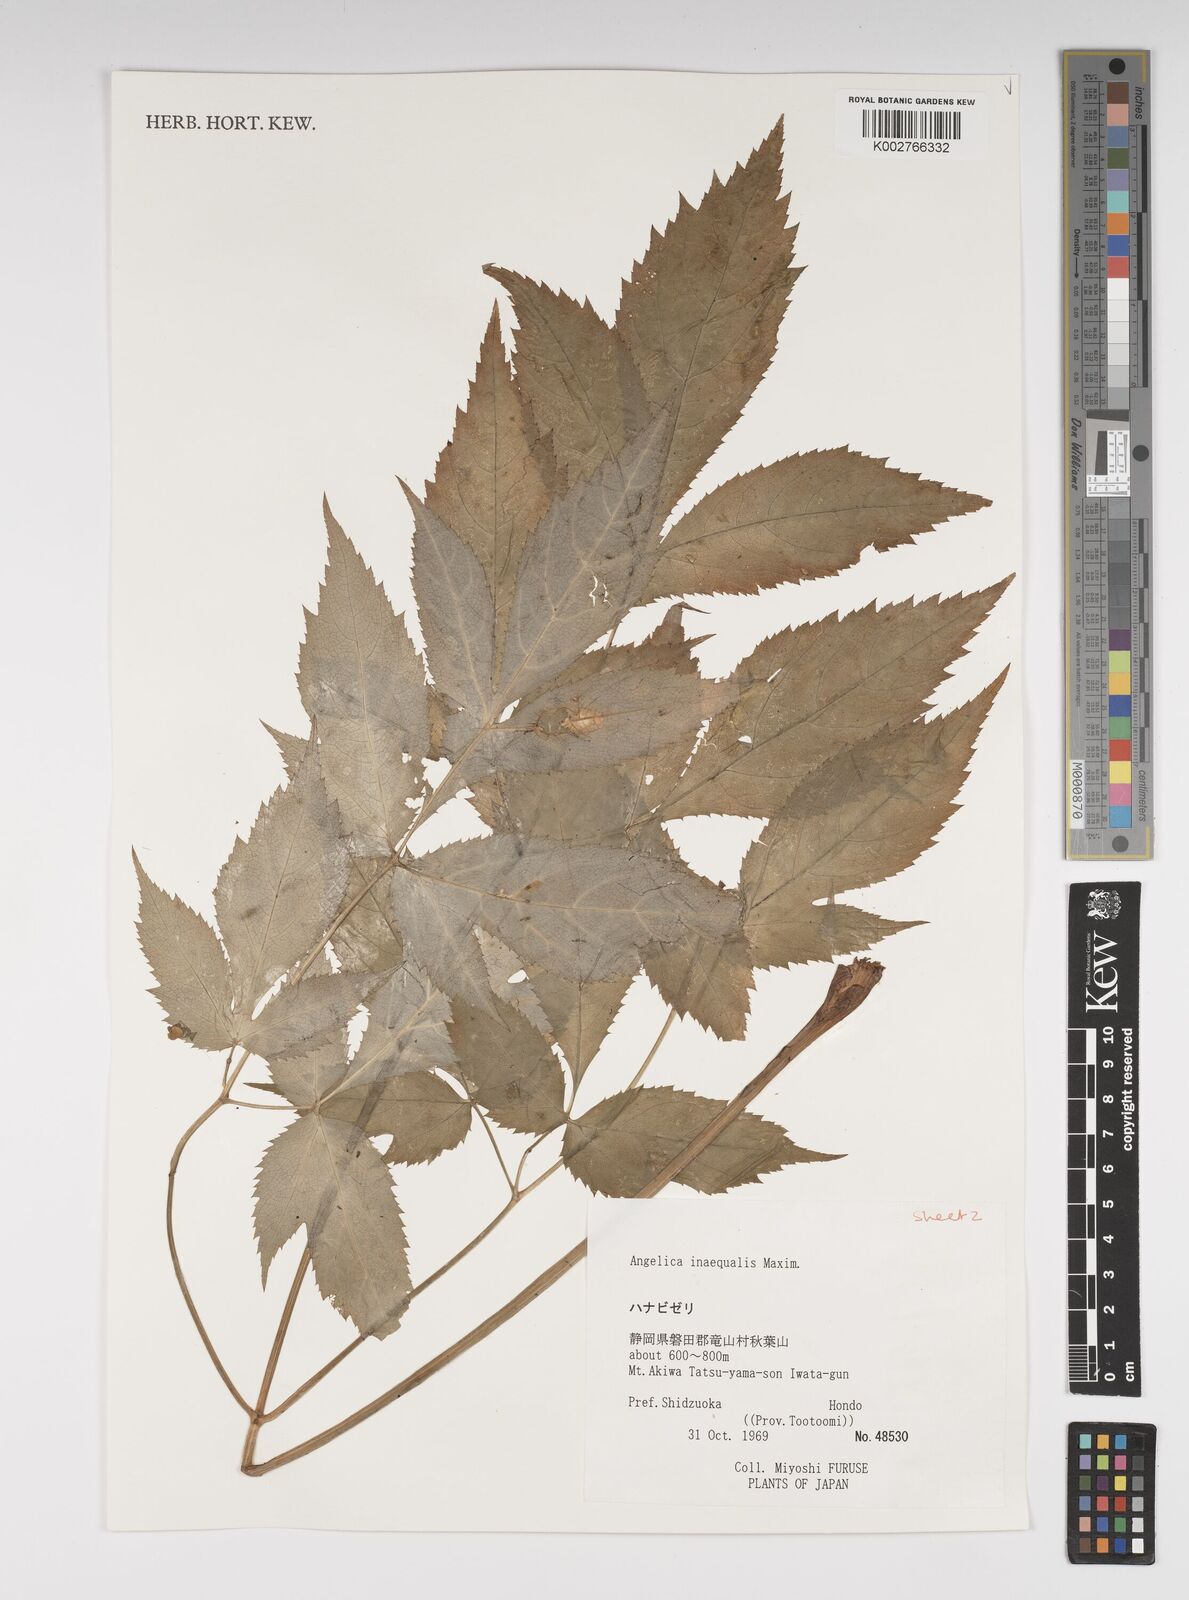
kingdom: Plantae
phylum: Tracheophyta
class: Magnoliopsida
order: Apiales
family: Apiaceae
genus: Angelica
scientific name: Angelica inaequalis
